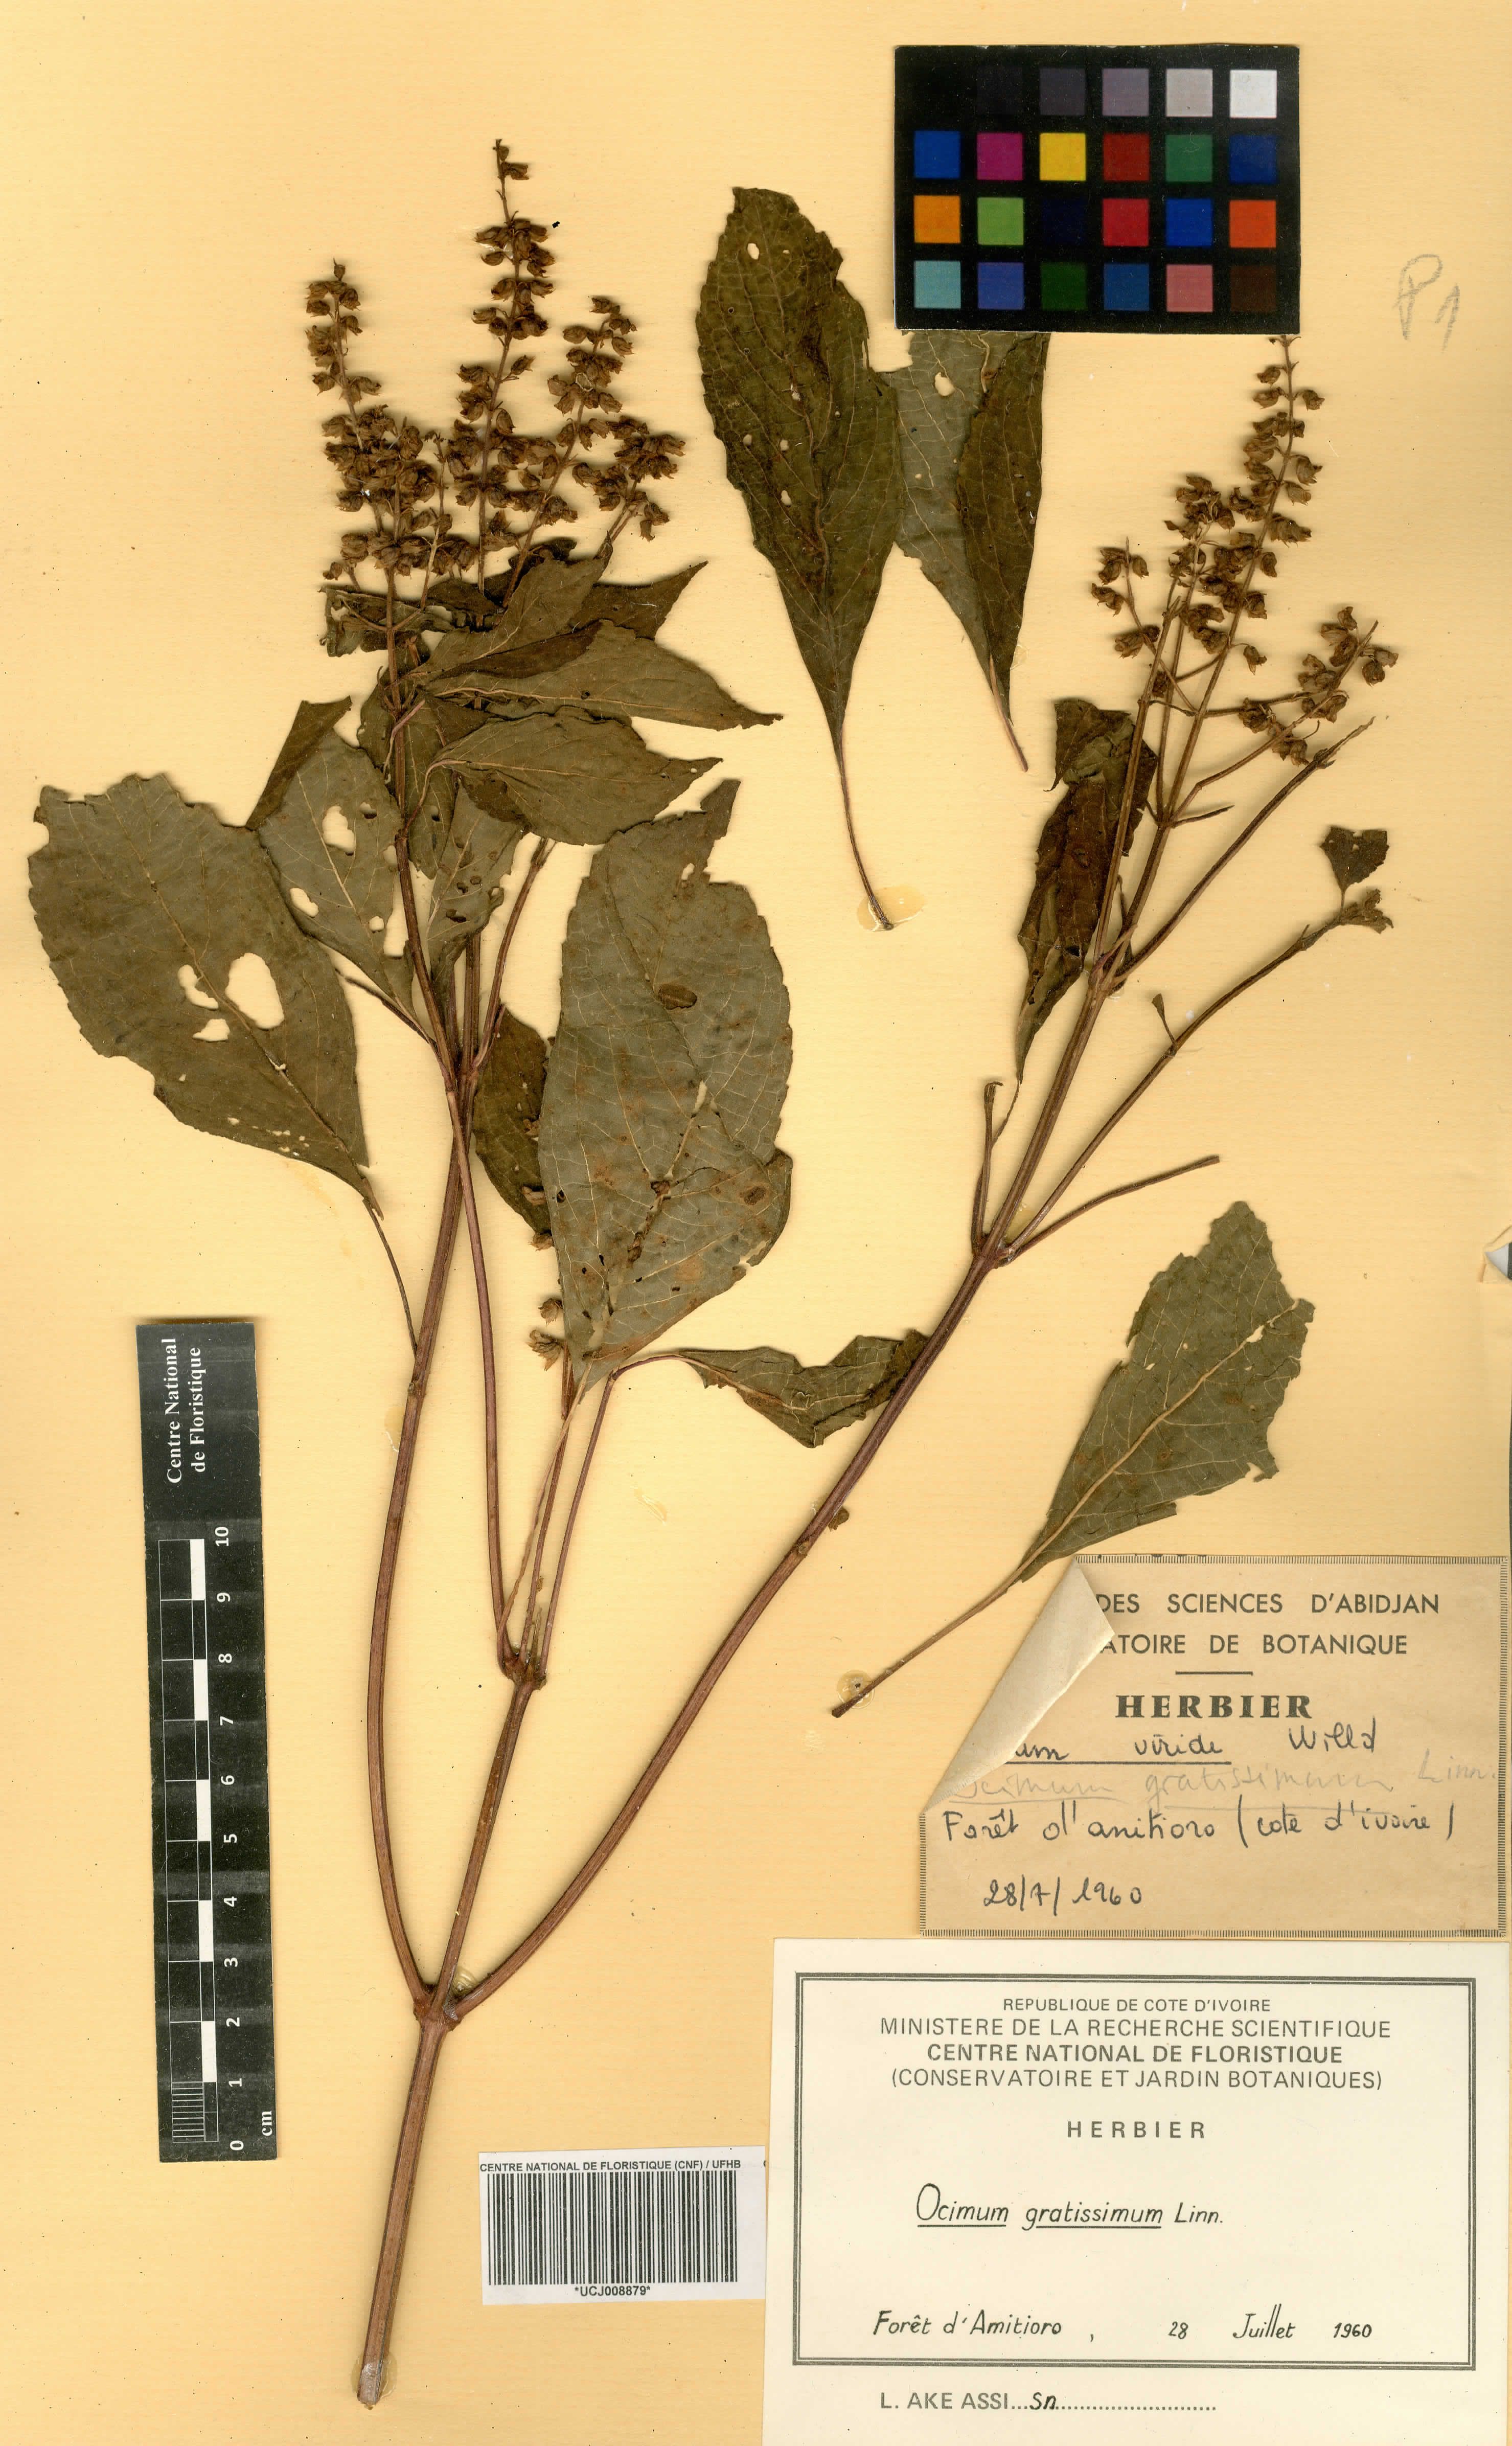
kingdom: Plantae
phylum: Tracheophyta
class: Magnoliopsida
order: Lamiales
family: Lamiaceae
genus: Ocimum
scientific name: Ocimum gratissimum
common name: African basil
